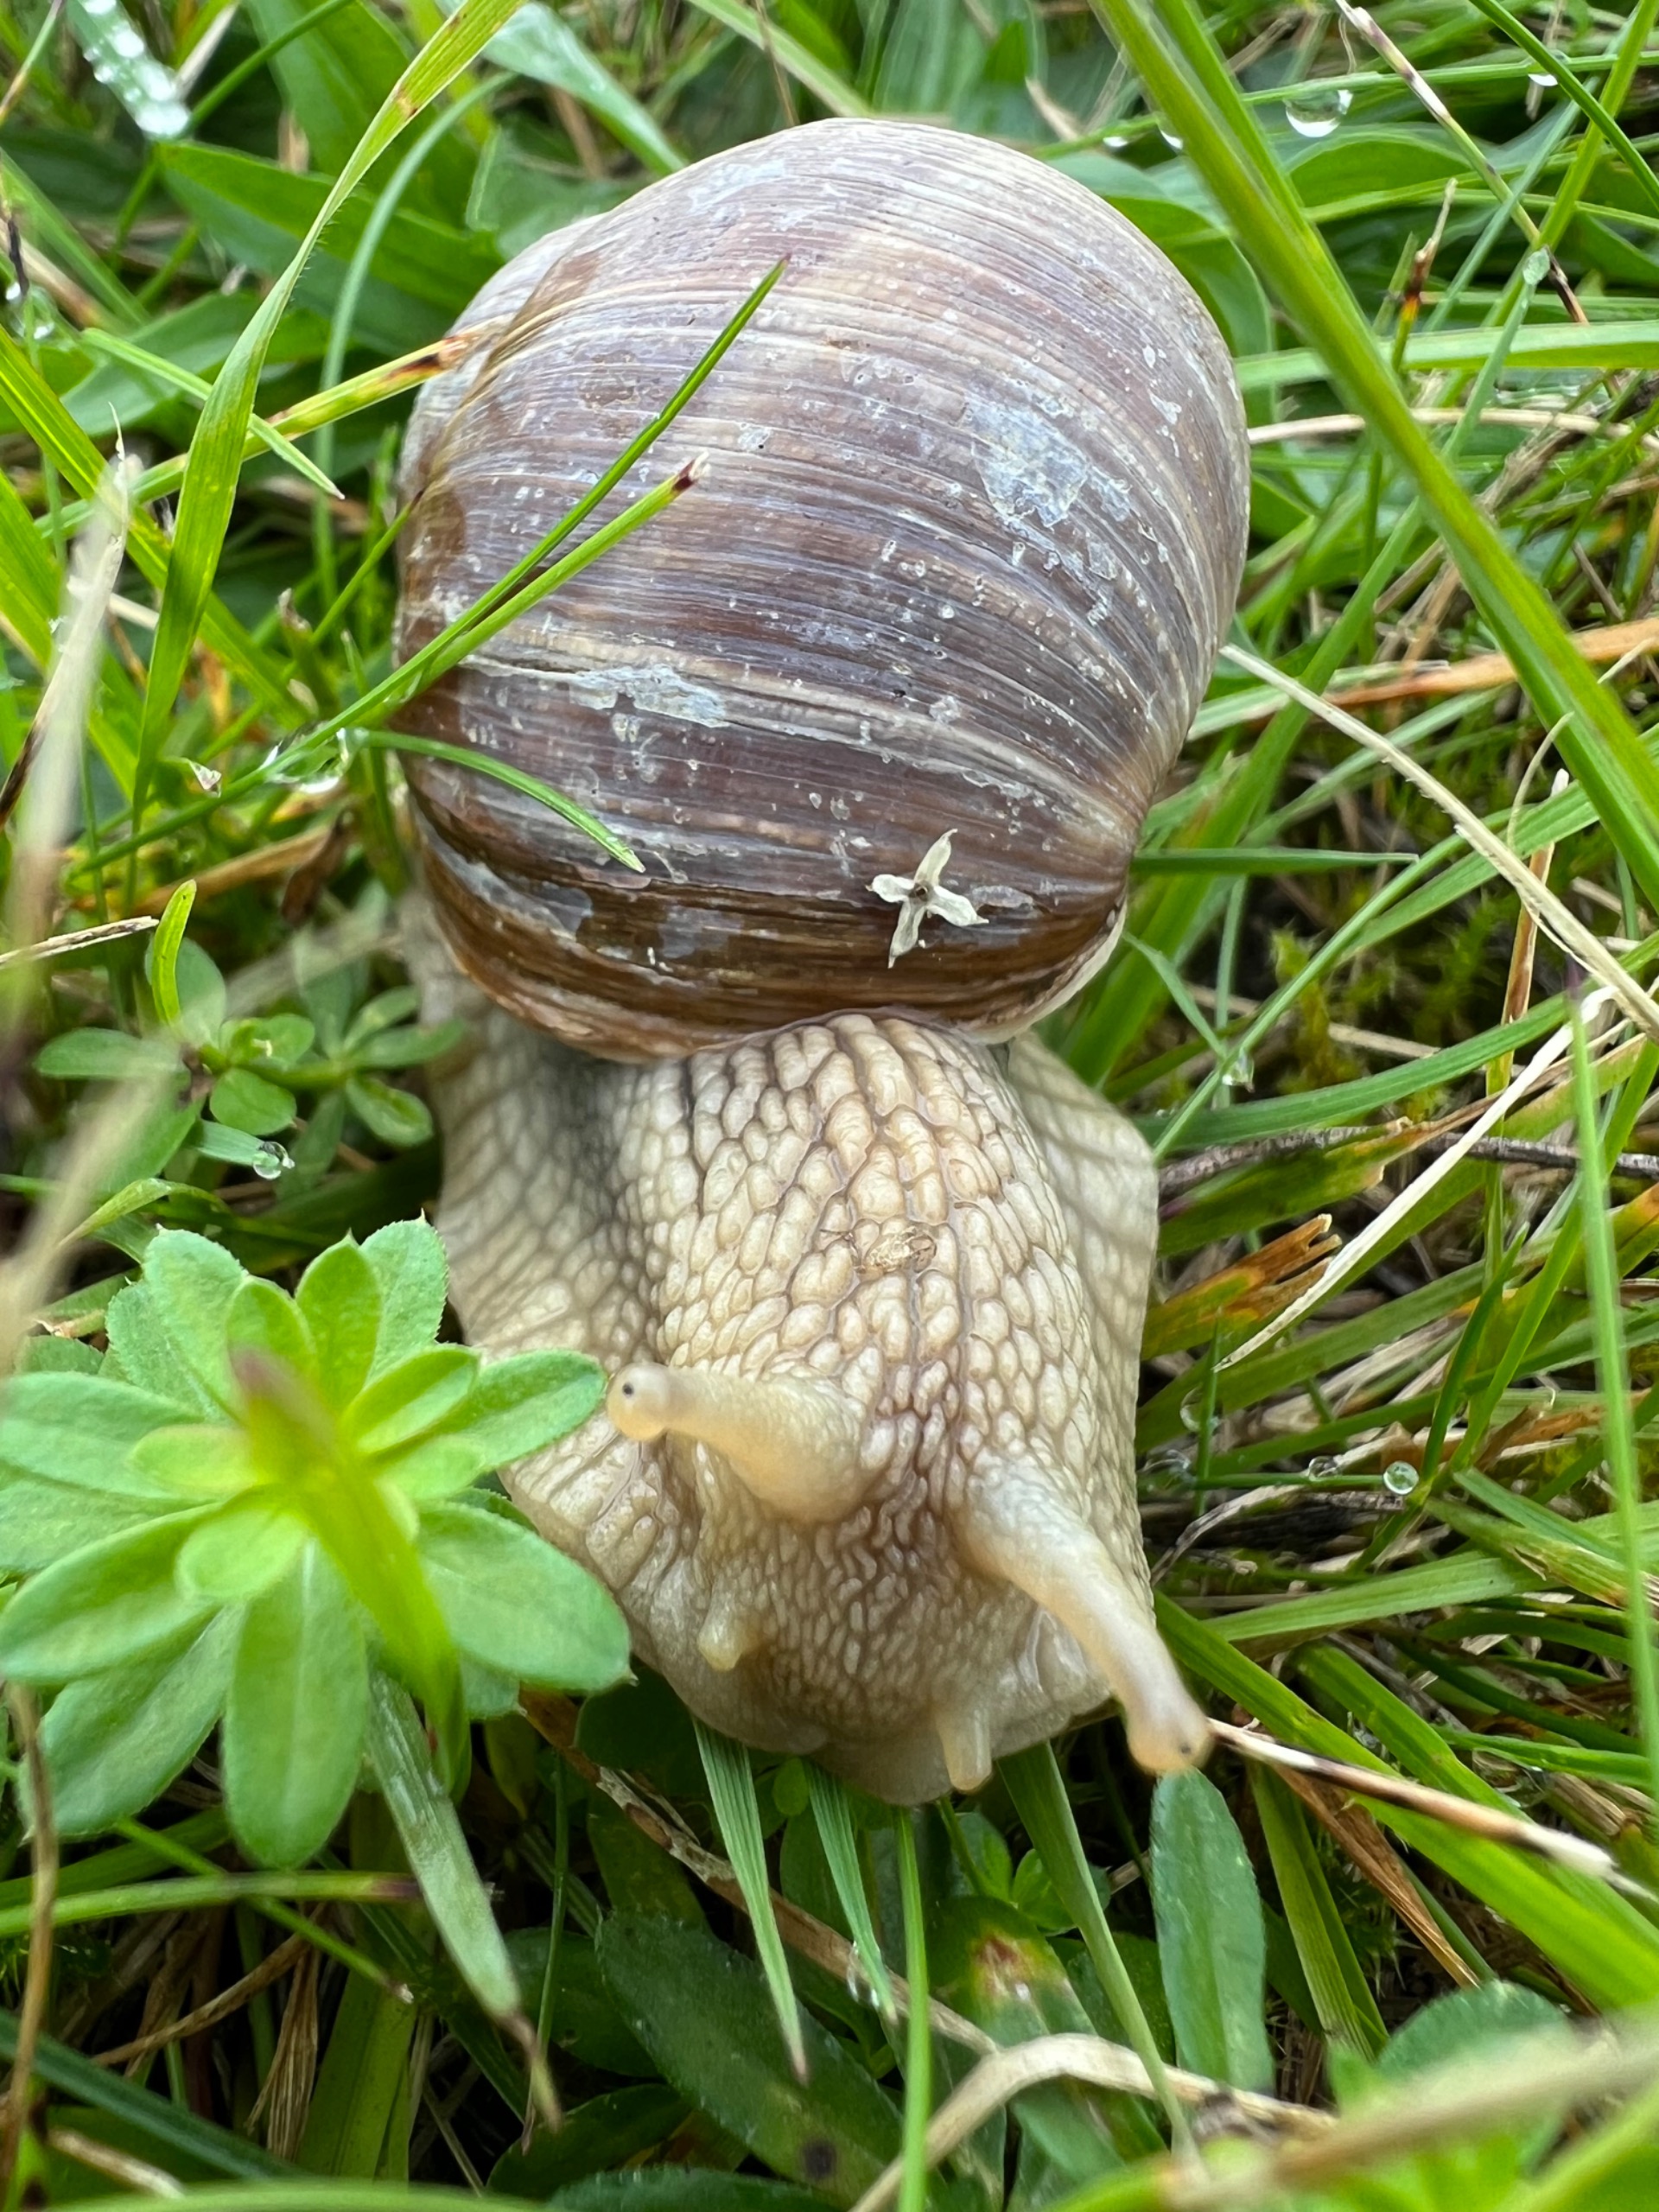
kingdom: Animalia
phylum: Mollusca
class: Gastropoda
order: Stylommatophora
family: Helicidae
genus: Helix
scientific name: Helix pomatia
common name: Vinbjergsnegl
